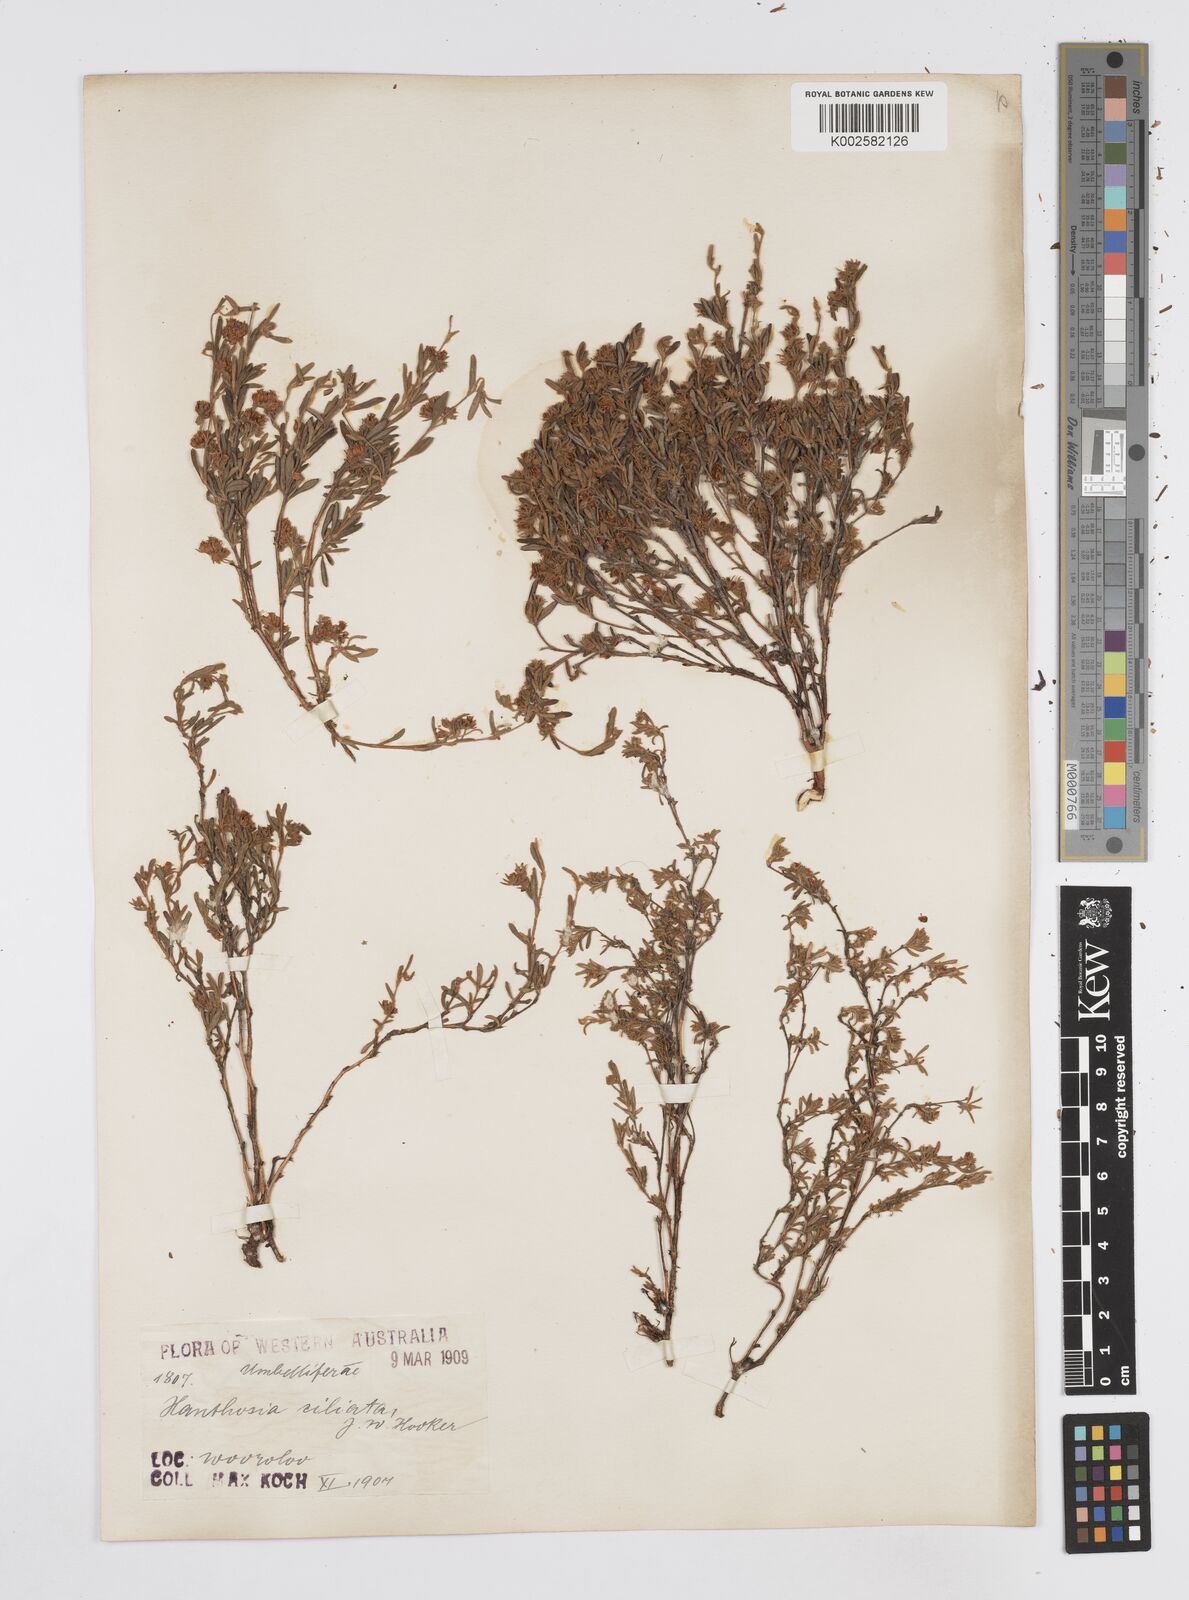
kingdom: Plantae
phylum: Tracheophyta
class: Magnoliopsida
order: Apiales
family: Apiaceae
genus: Xanthosia
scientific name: Xanthosia ciliata
